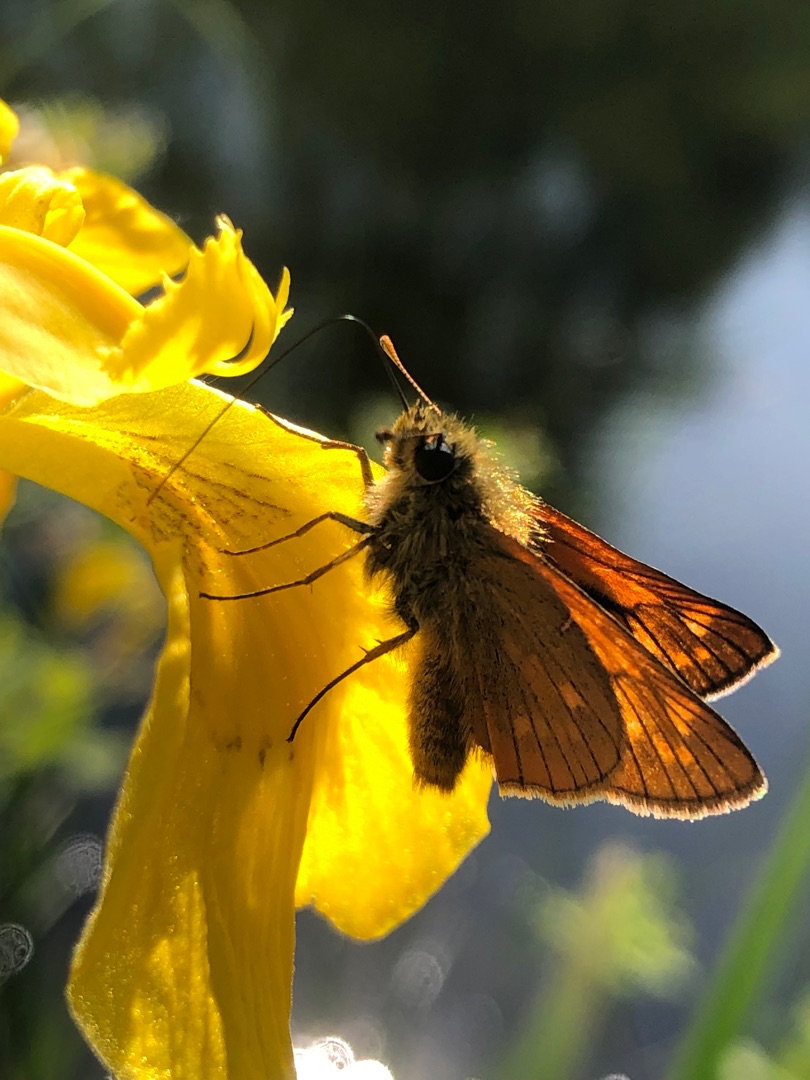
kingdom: Animalia
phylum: Arthropoda
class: Insecta
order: Lepidoptera
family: Hesperiidae
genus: Ochlodes
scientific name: Ochlodes venata
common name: Stor bredpande
